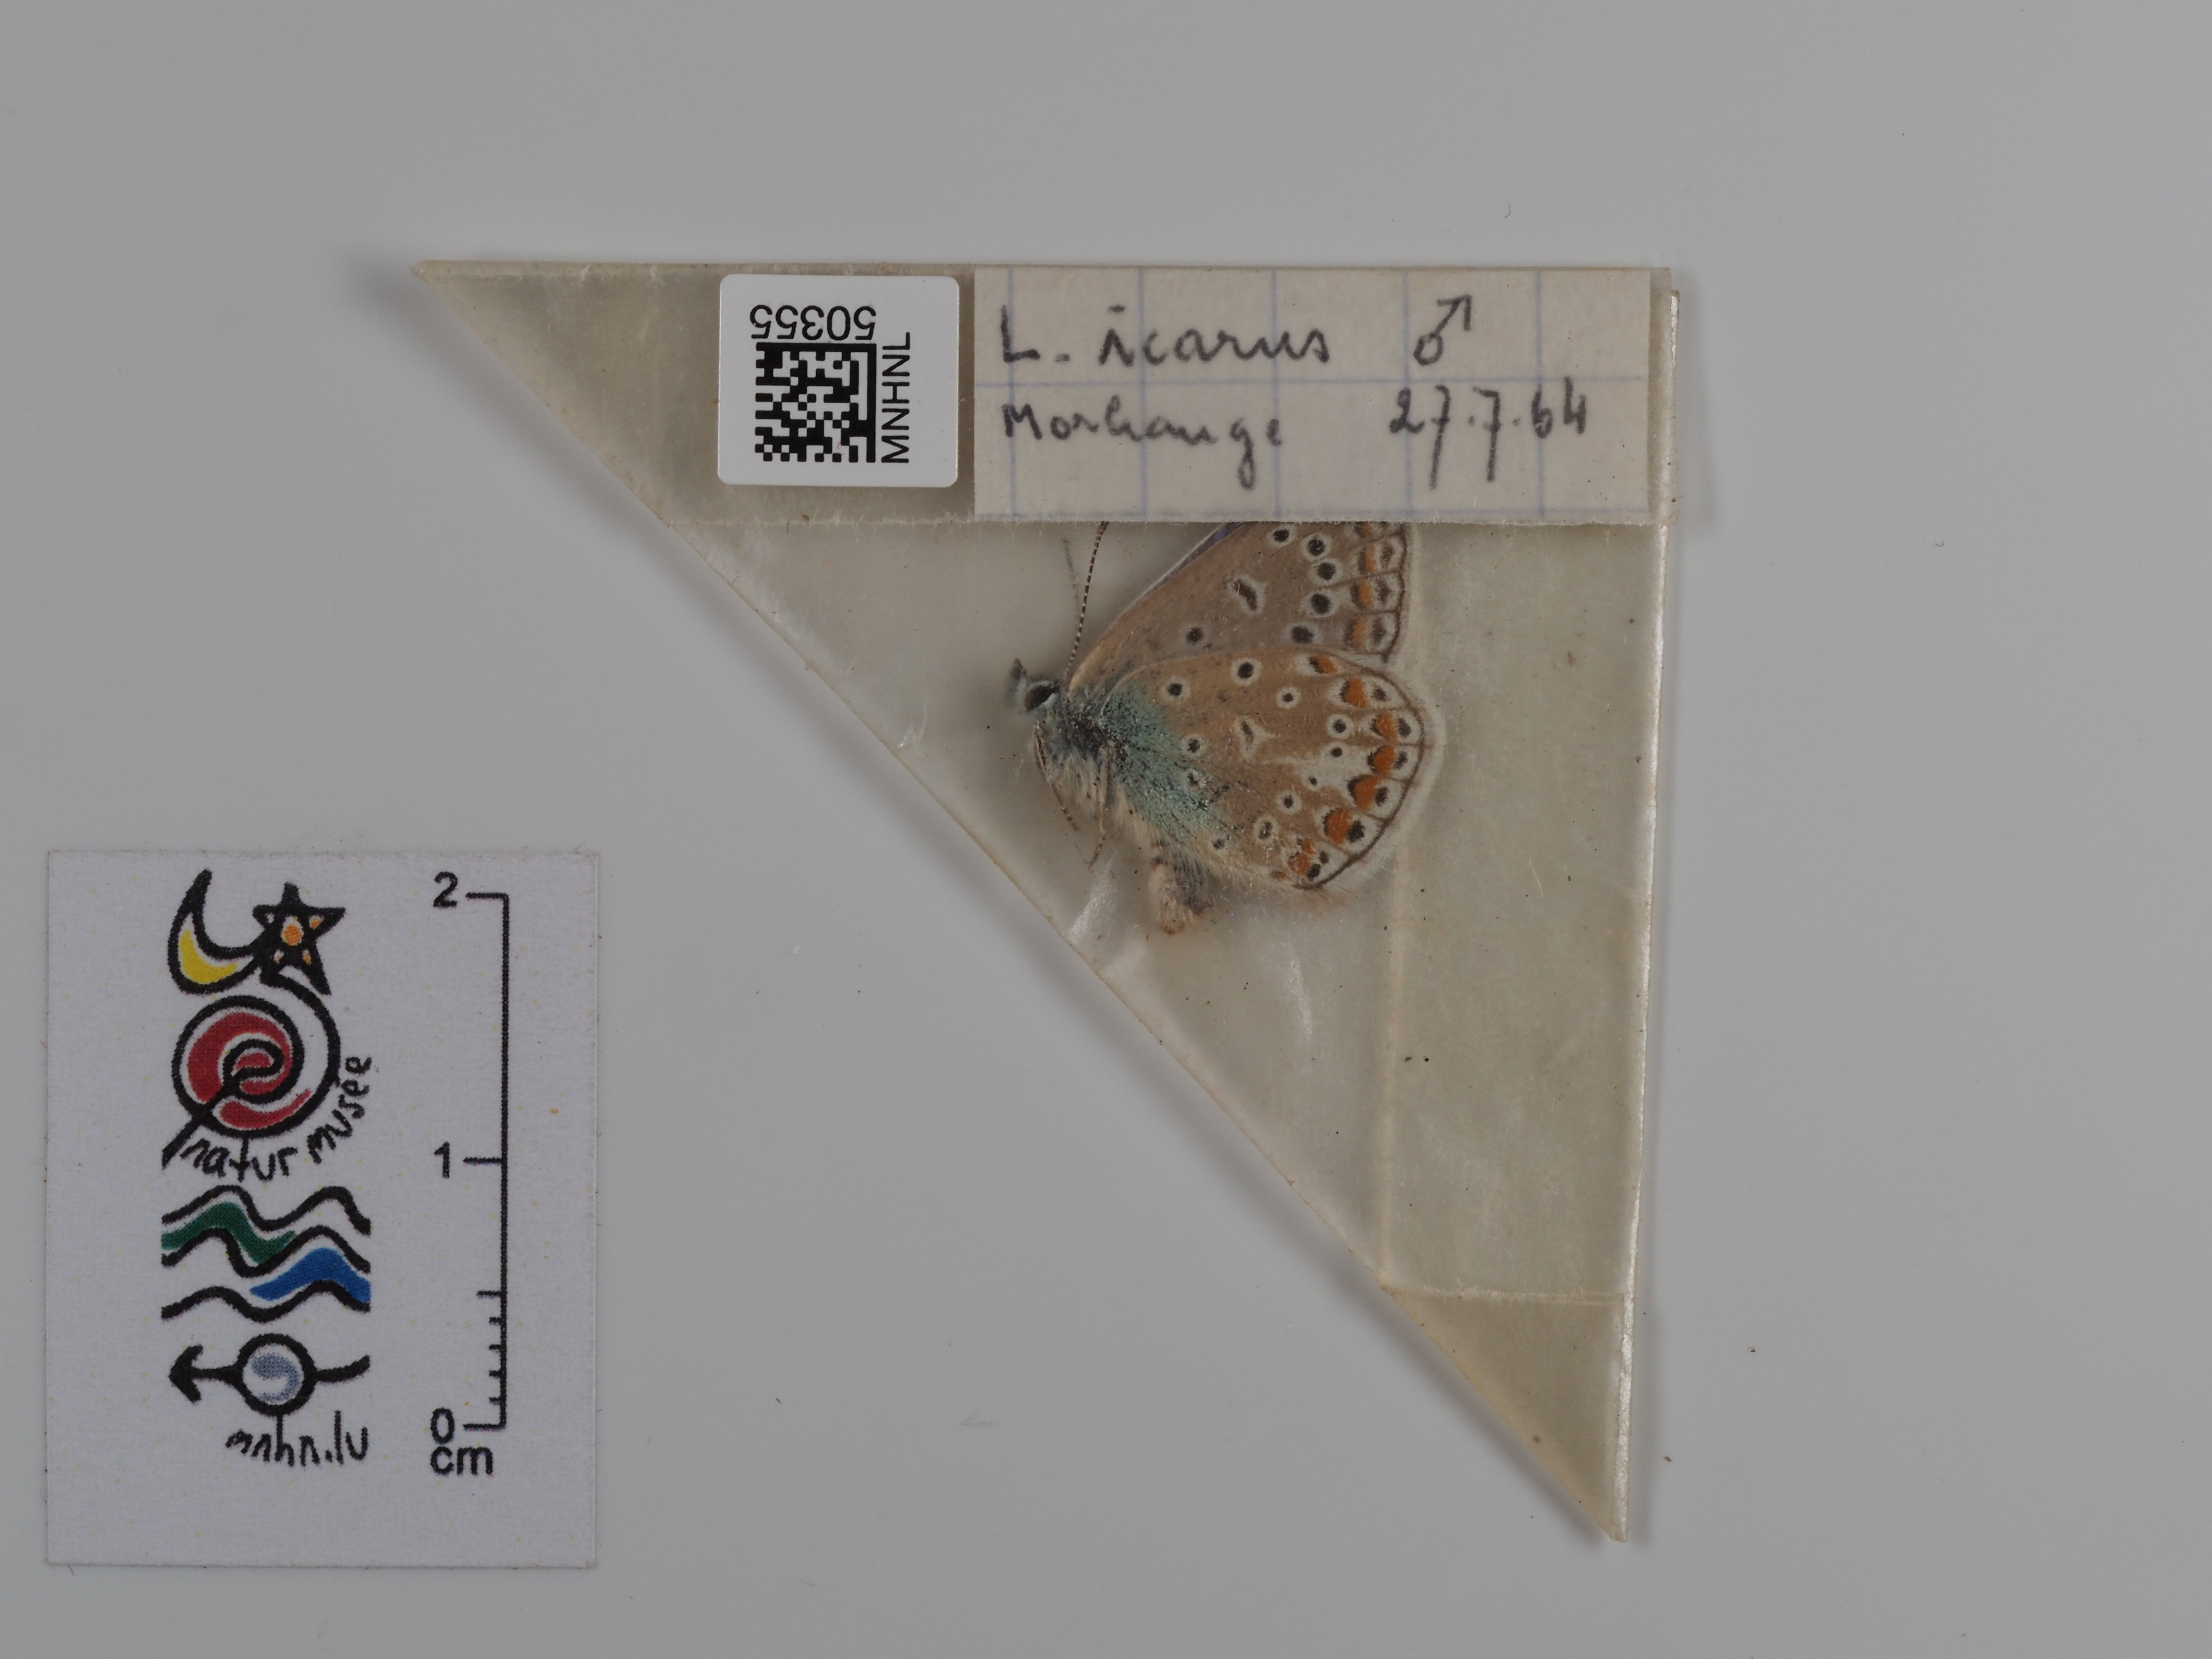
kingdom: Animalia
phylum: Arthropoda
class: Insecta
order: Lepidoptera
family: Lycaenidae
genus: Polyommatus
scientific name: Polyommatus icarus
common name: Common blue
